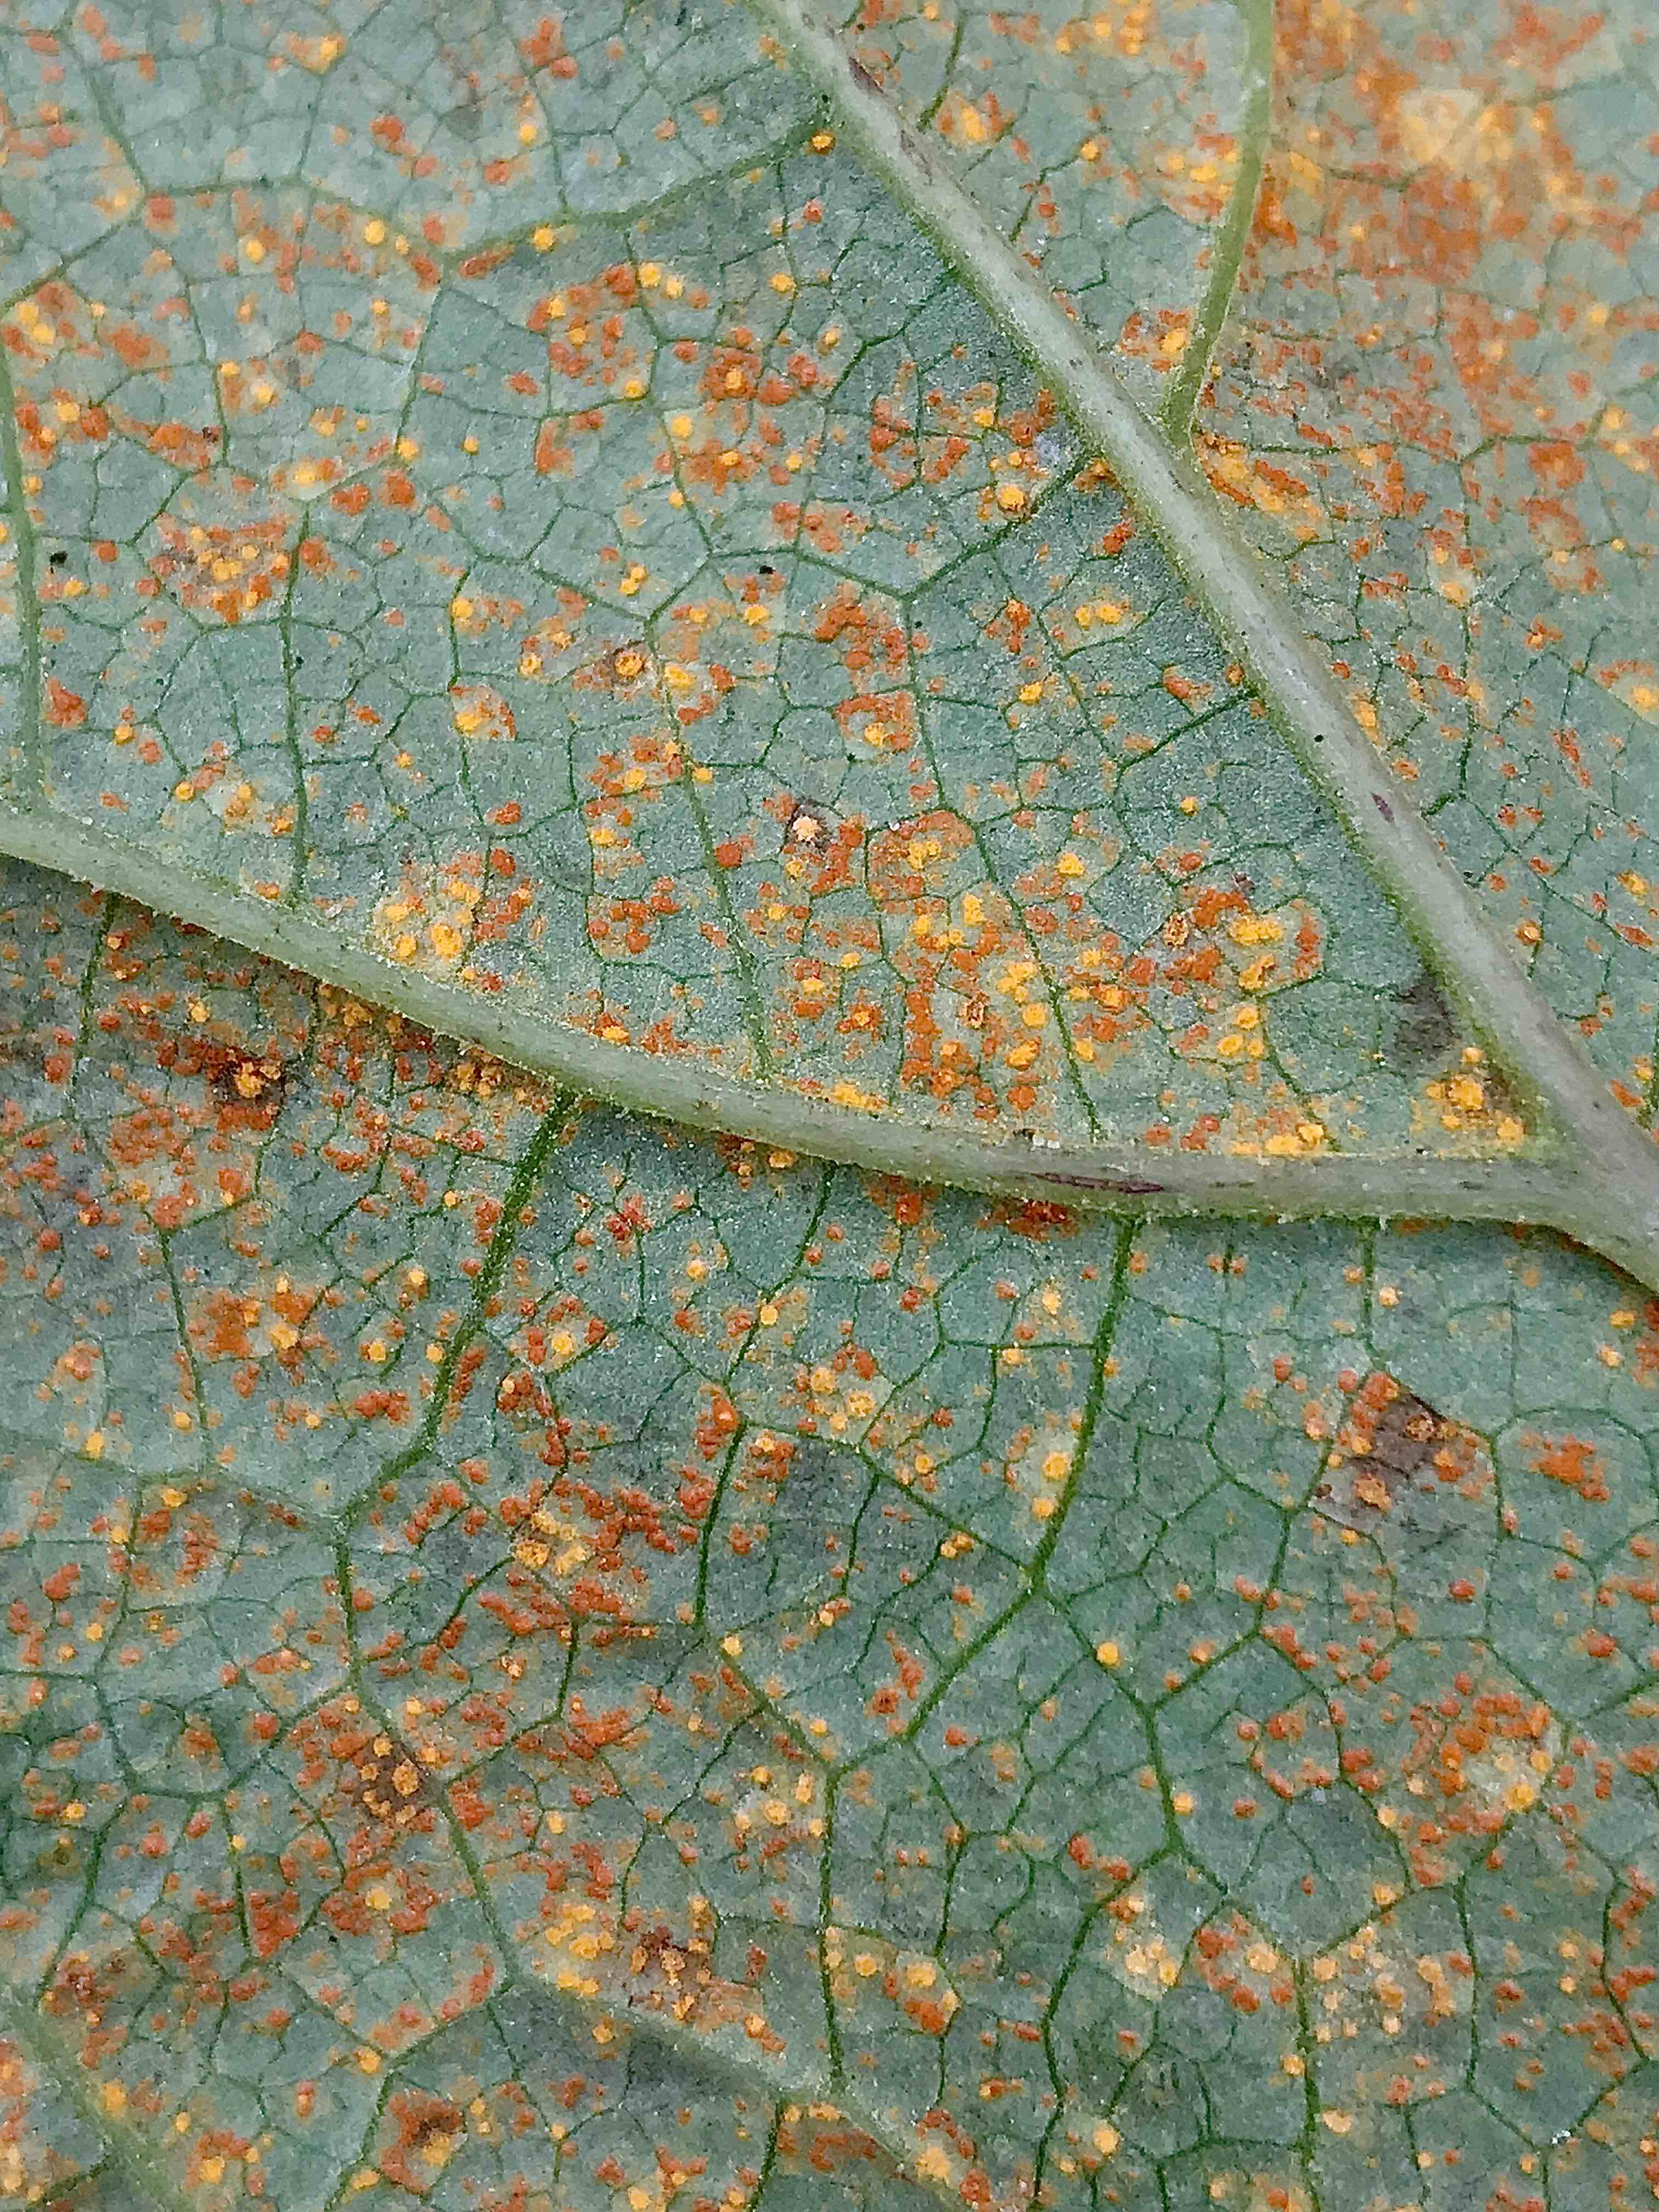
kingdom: Fungi
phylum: Basidiomycota
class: Pucciniomycetes
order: Pucciniales
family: Coleosporiaceae
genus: Coleosporium
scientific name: Coleosporium tussilaginis
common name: almindelig fyrrenålerust
